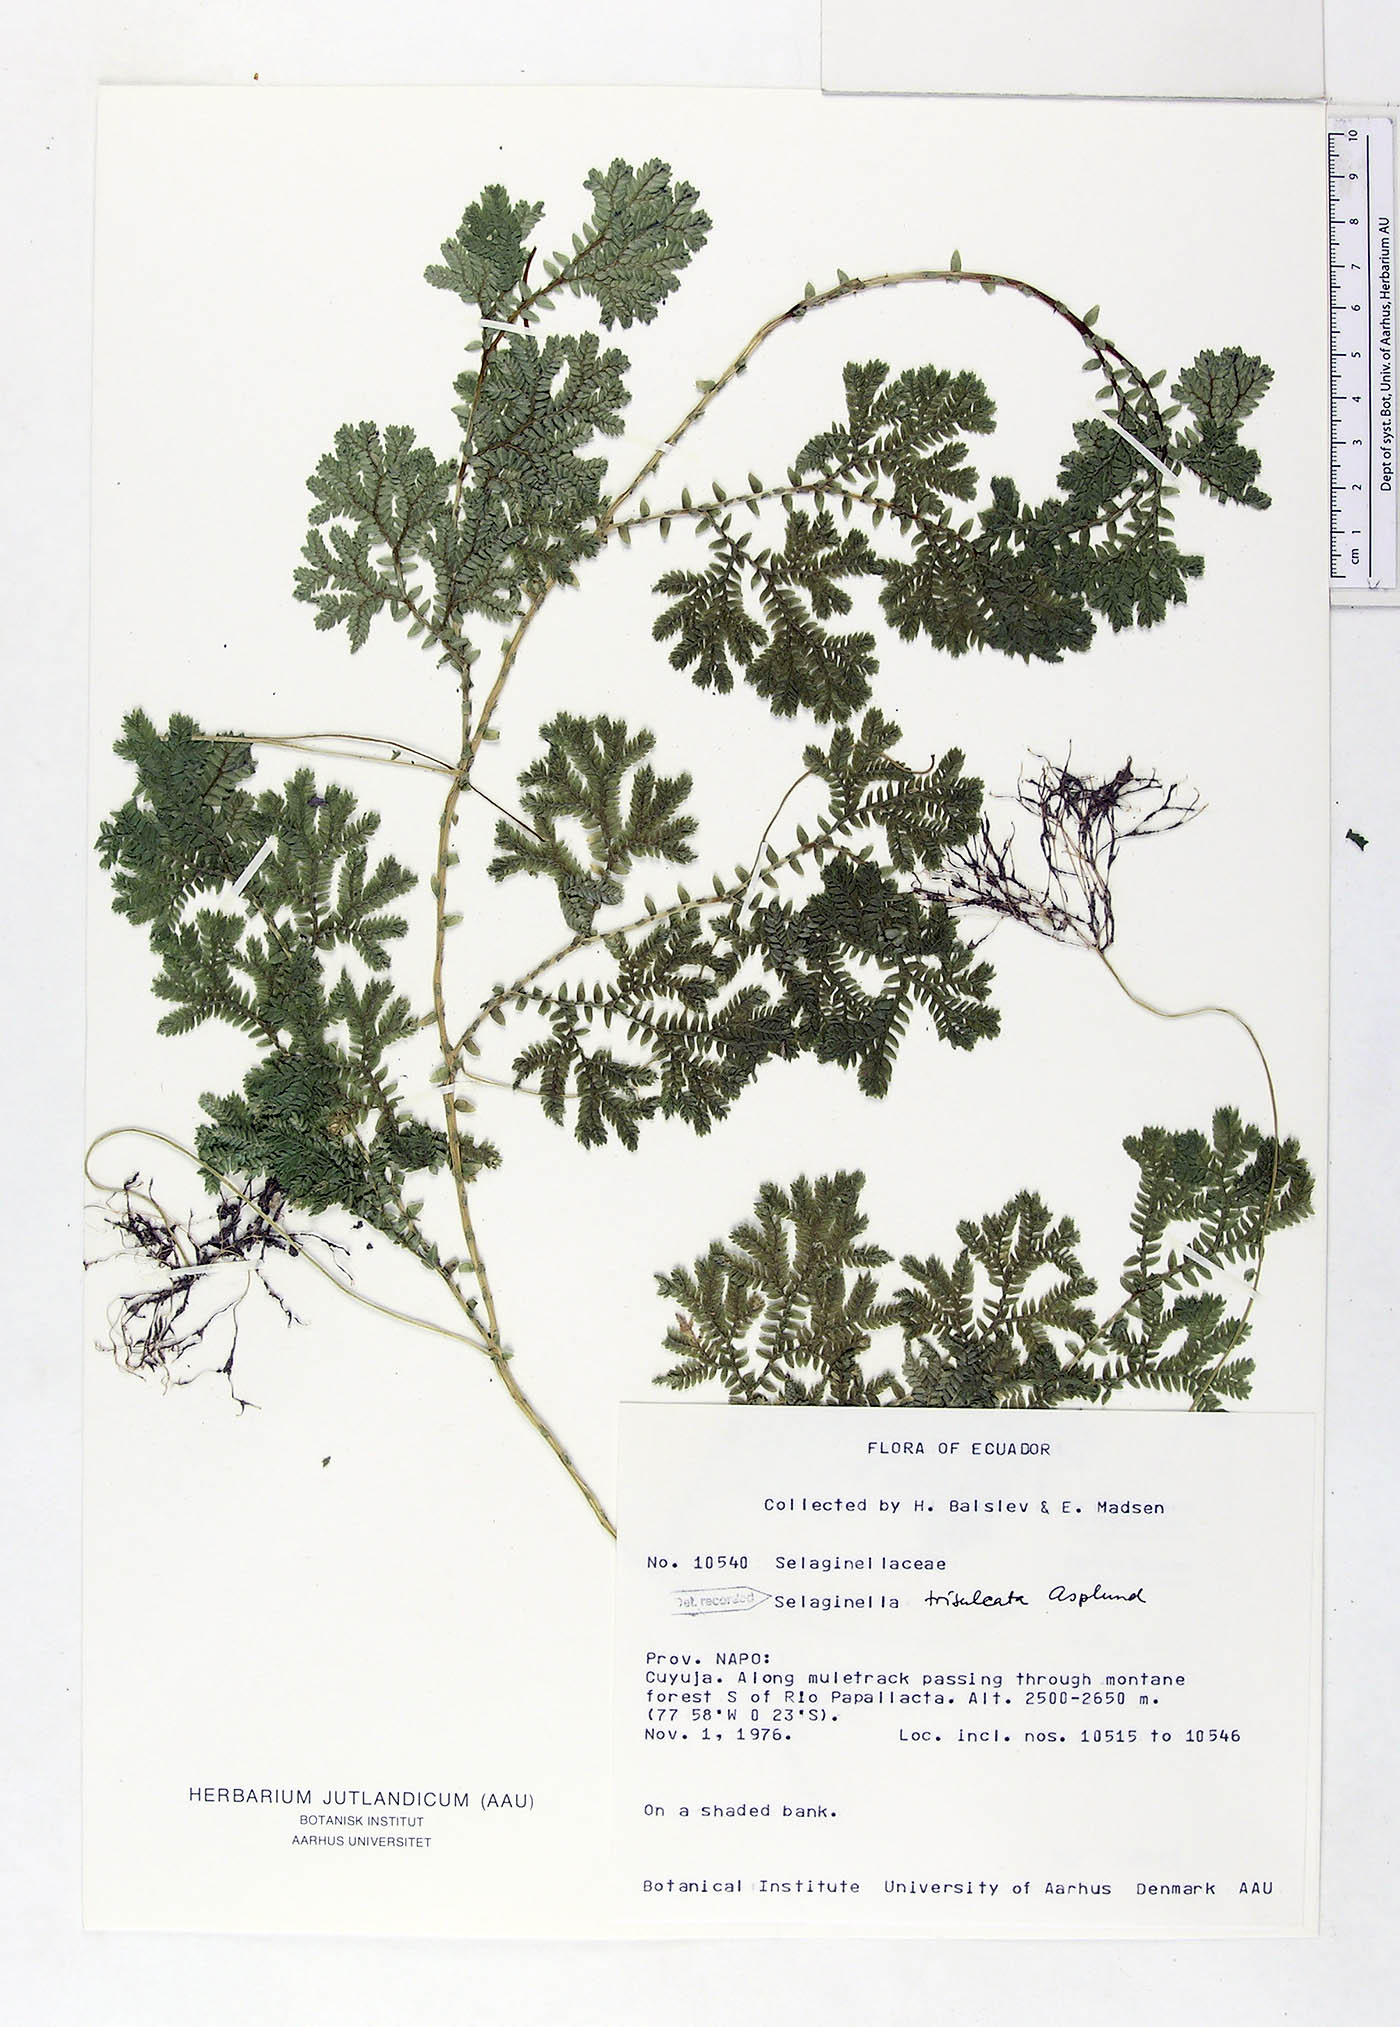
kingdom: Plantae
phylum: Tracheophyta
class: Lycopodiopsida
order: Selaginellales
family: Selaginellaceae
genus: Selaginella
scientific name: Selaginella trisulcata
